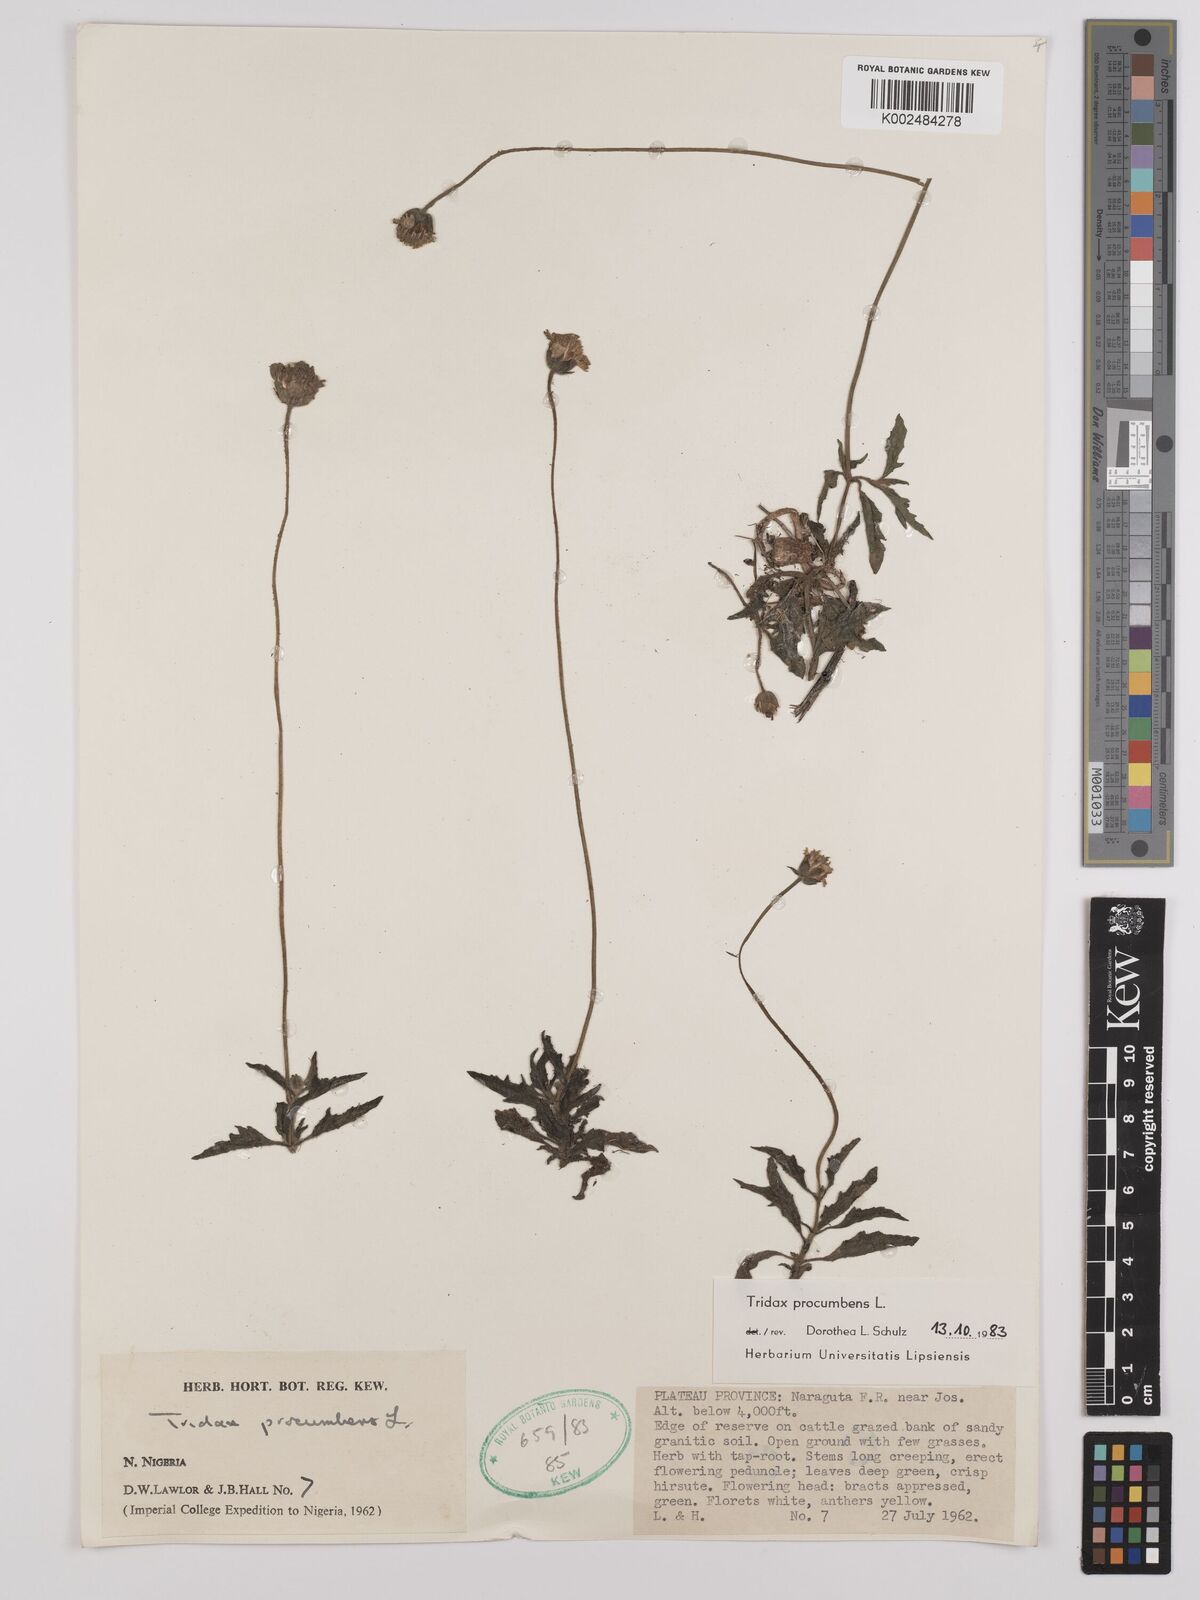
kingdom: Plantae
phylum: Tracheophyta
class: Magnoliopsida
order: Asterales
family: Asteraceae
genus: Tridax
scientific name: Tridax procumbens
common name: Coatbuttons
